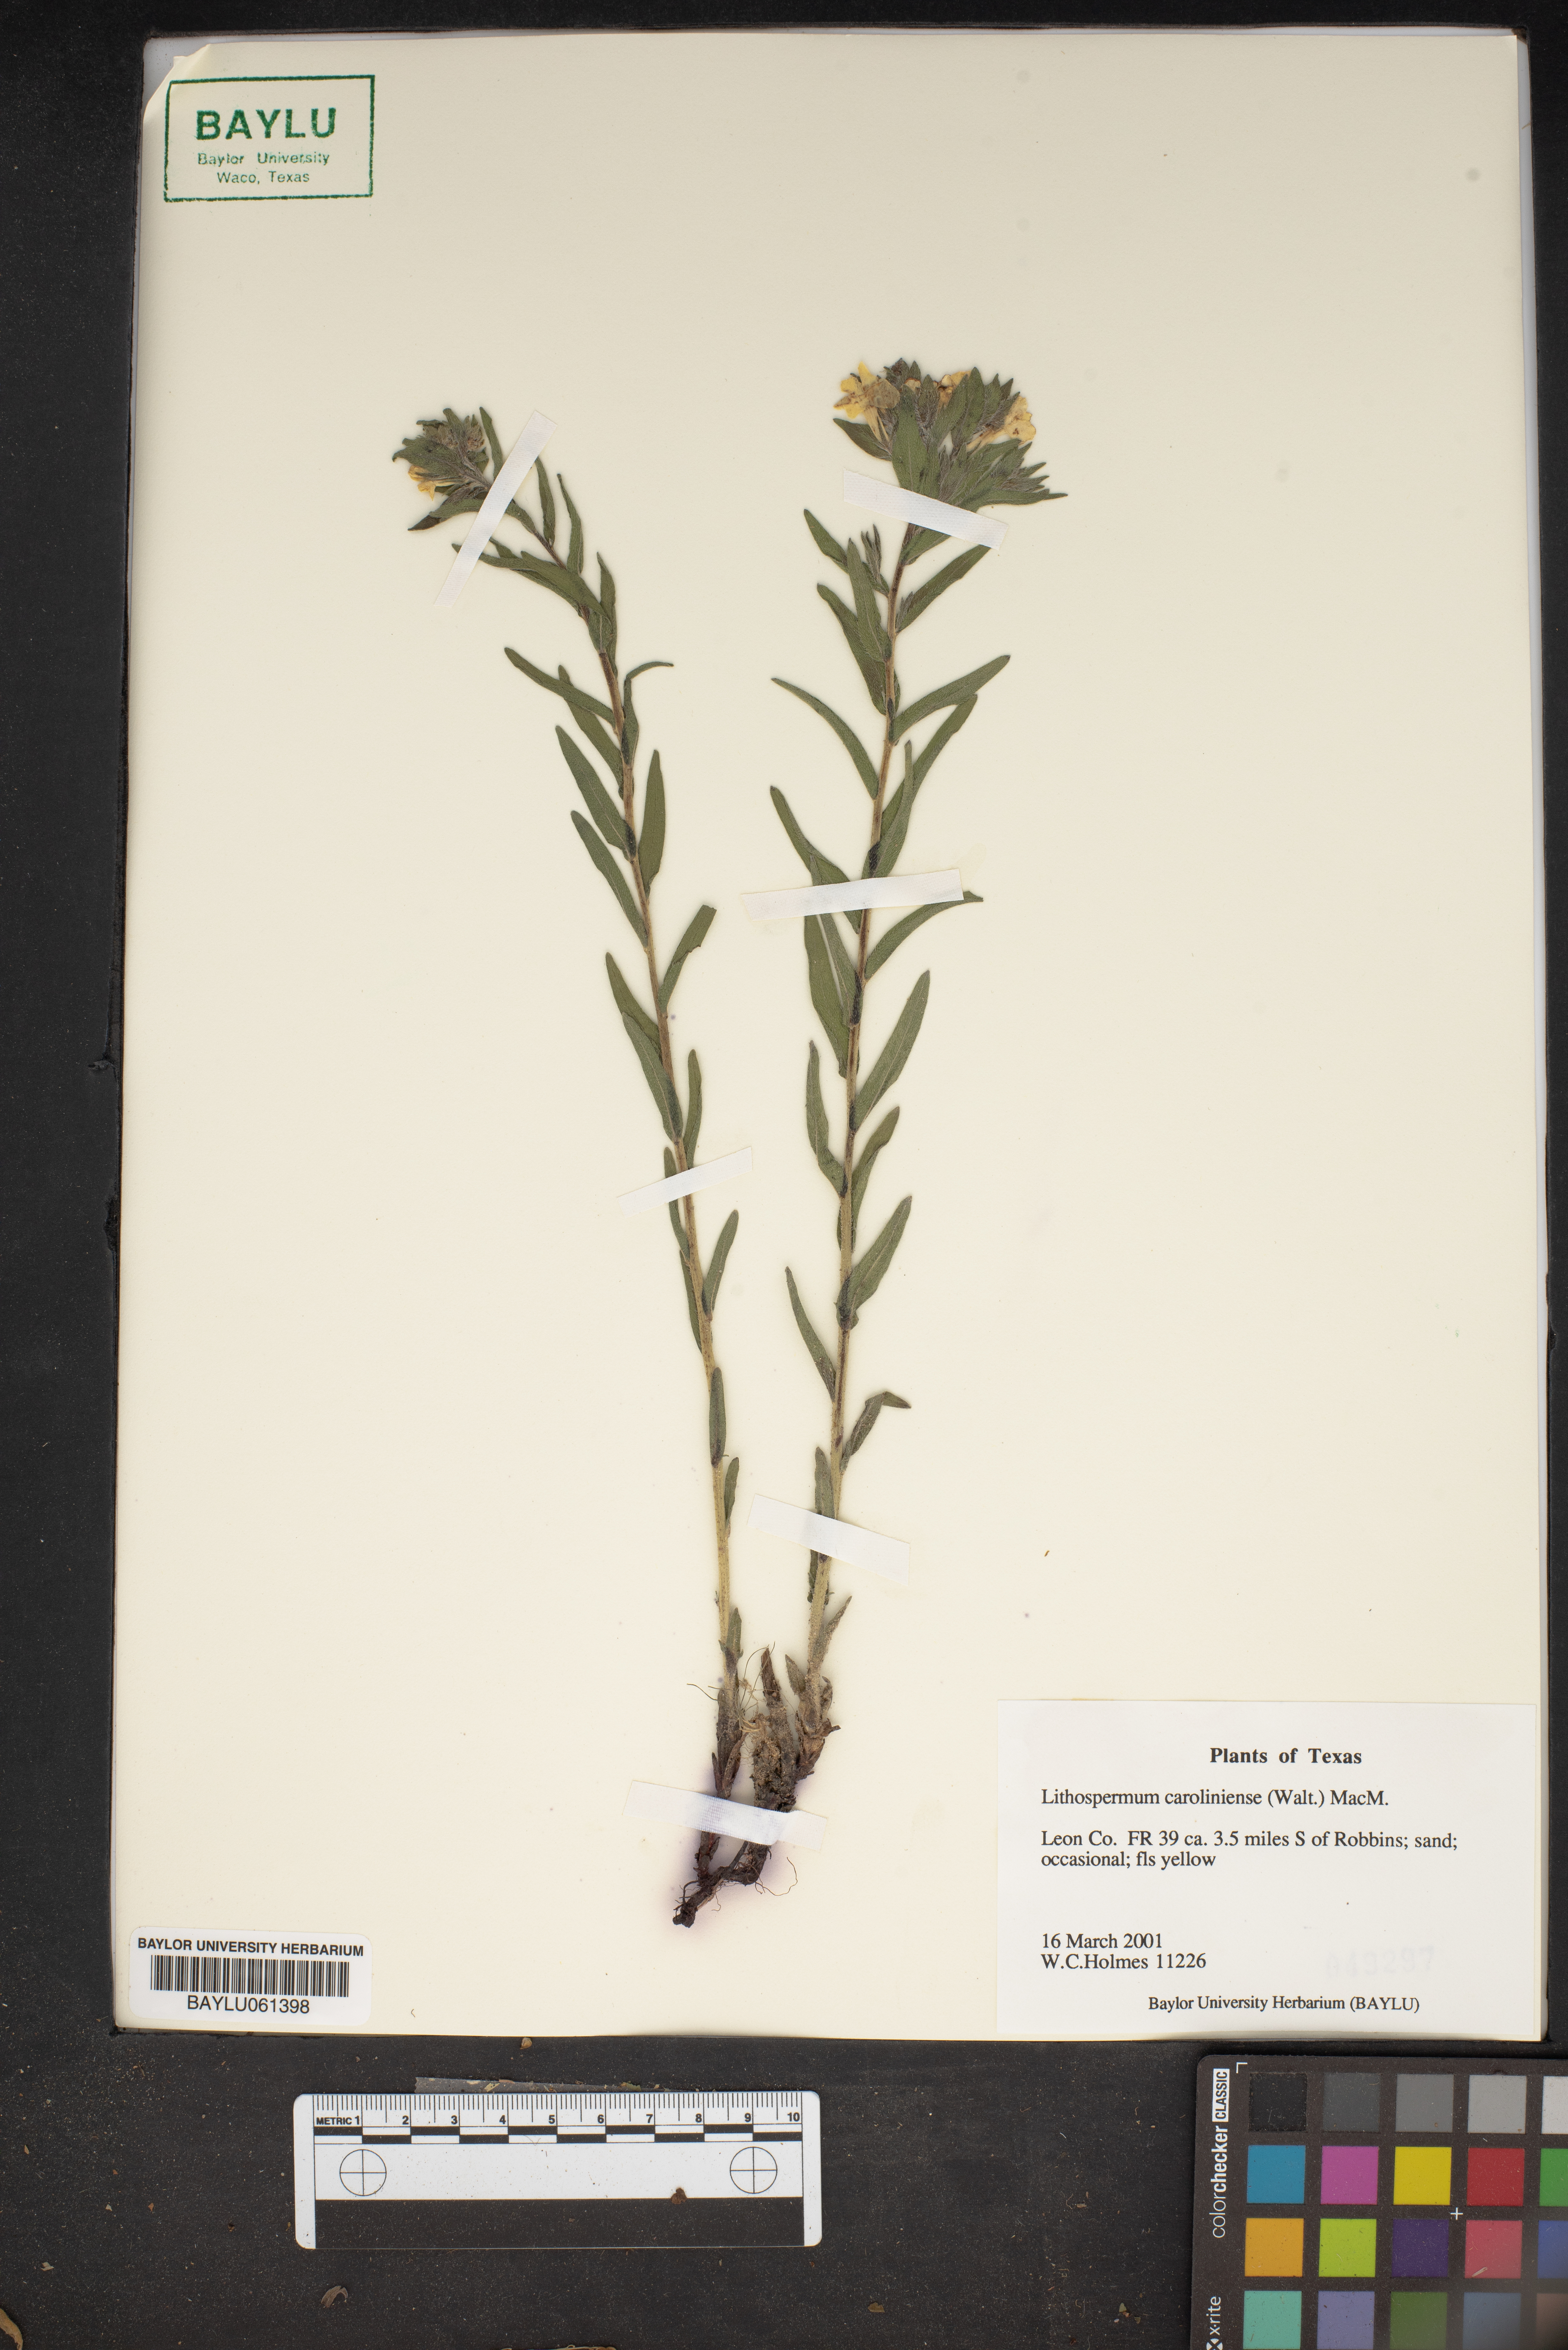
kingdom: Plantae
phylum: Tracheophyta
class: Magnoliopsida
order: Boraginales
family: Boraginaceae
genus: Lithospermum
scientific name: Lithospermum caroliniense
